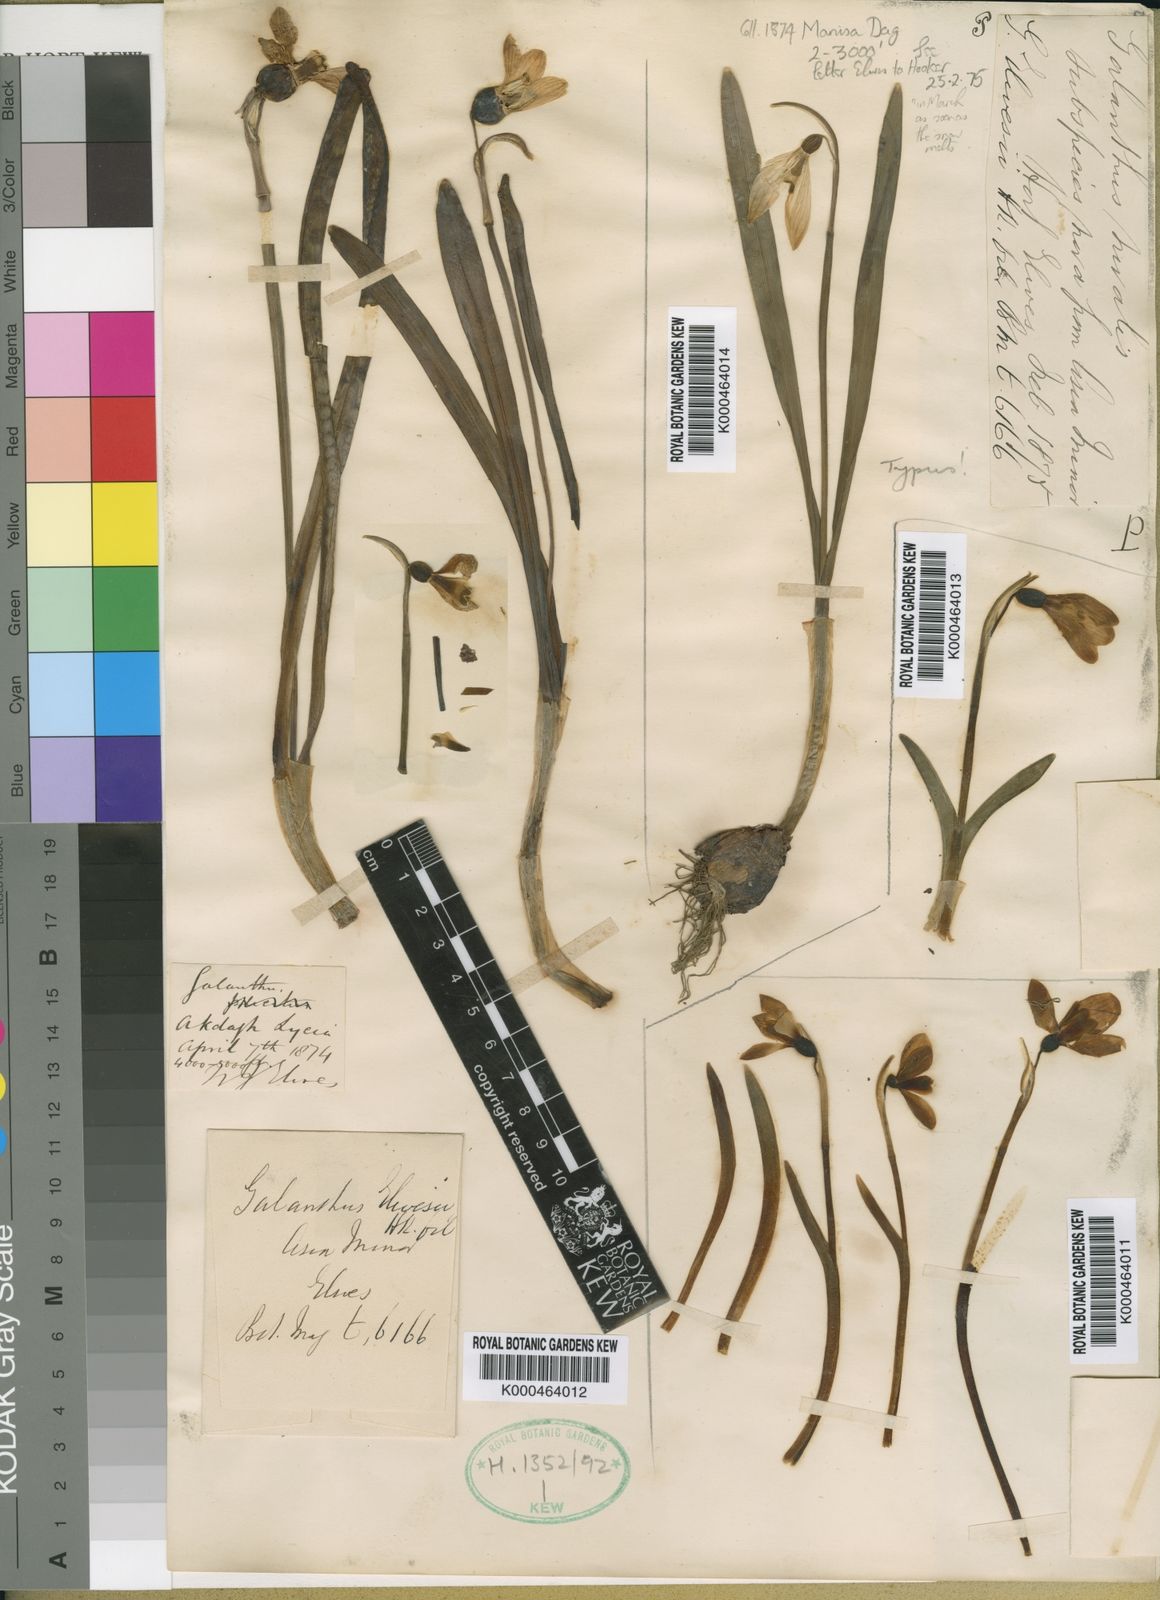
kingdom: Plantae
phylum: Tracheophyta
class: Liliopsida
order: Asparagales
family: Amaryllidaceae
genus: Galanthus
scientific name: Galanthus elwesii
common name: Greater snowdrop
